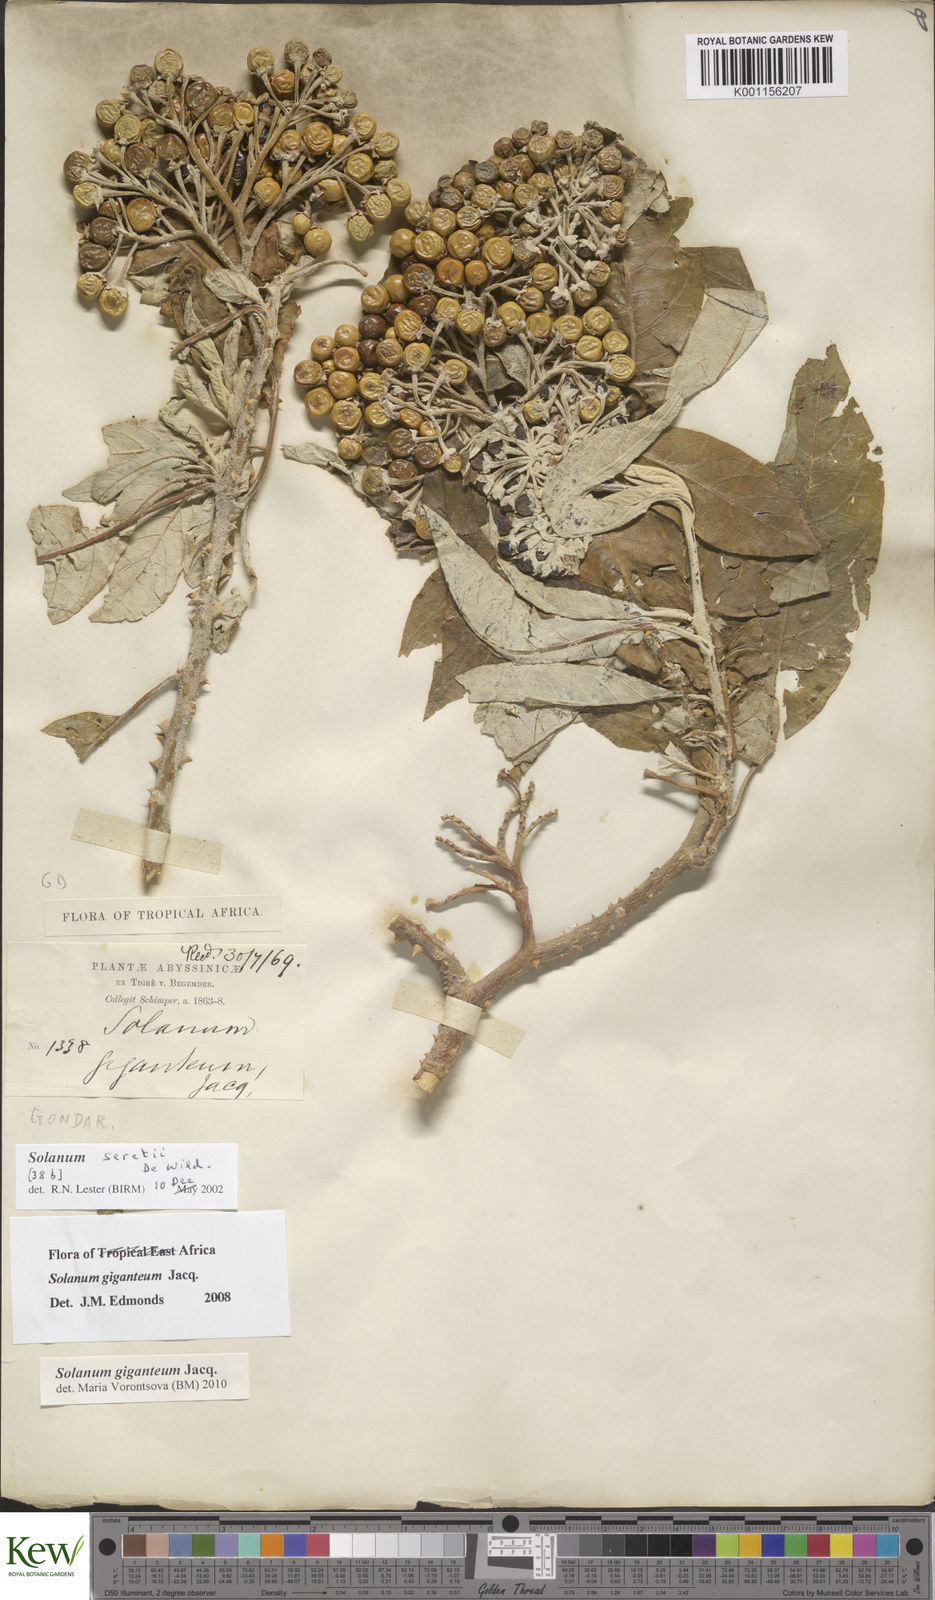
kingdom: Plantae
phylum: Tracheophyta
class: Magnoliopsida
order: Solanales
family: Solanaceae
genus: Solanum
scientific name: Solanum giganteum
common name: Healing-leaf-tree
